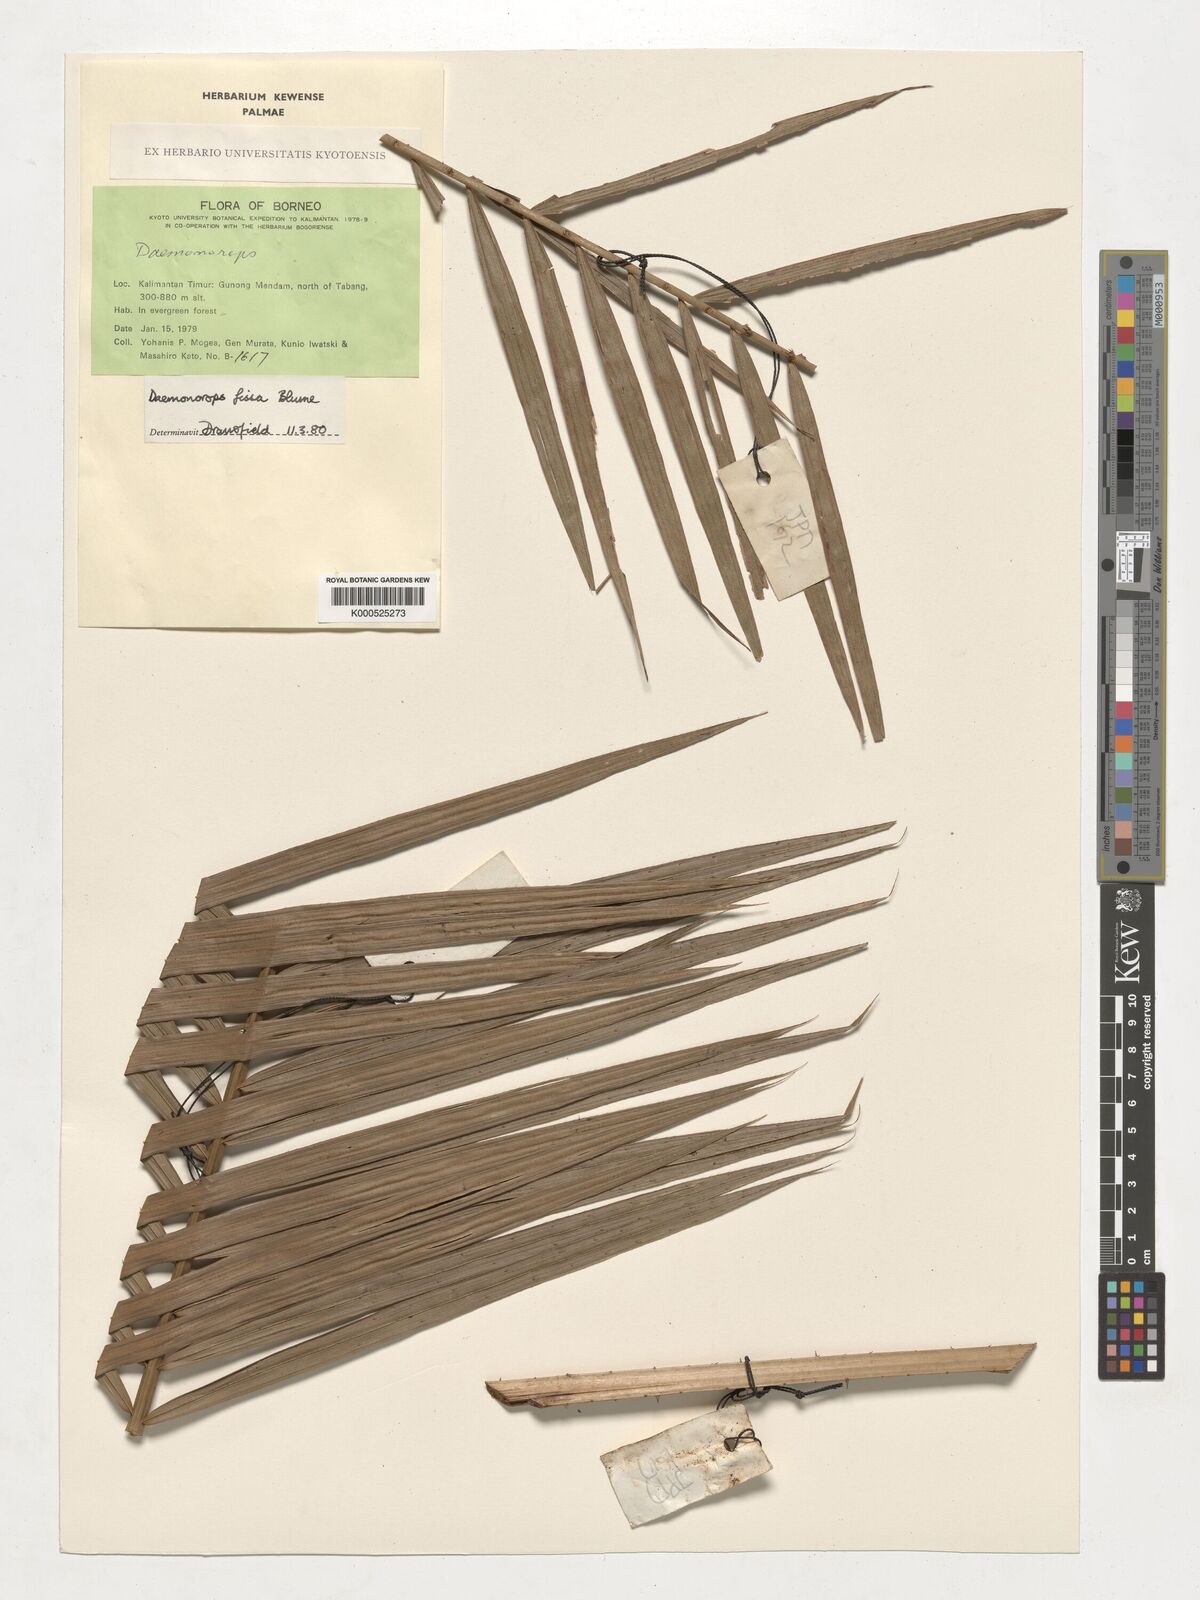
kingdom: Plantae
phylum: Tracheophyta
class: Liliopsida
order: Arecales
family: Arecaceae
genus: Calamus
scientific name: Calamus melanochaetes
